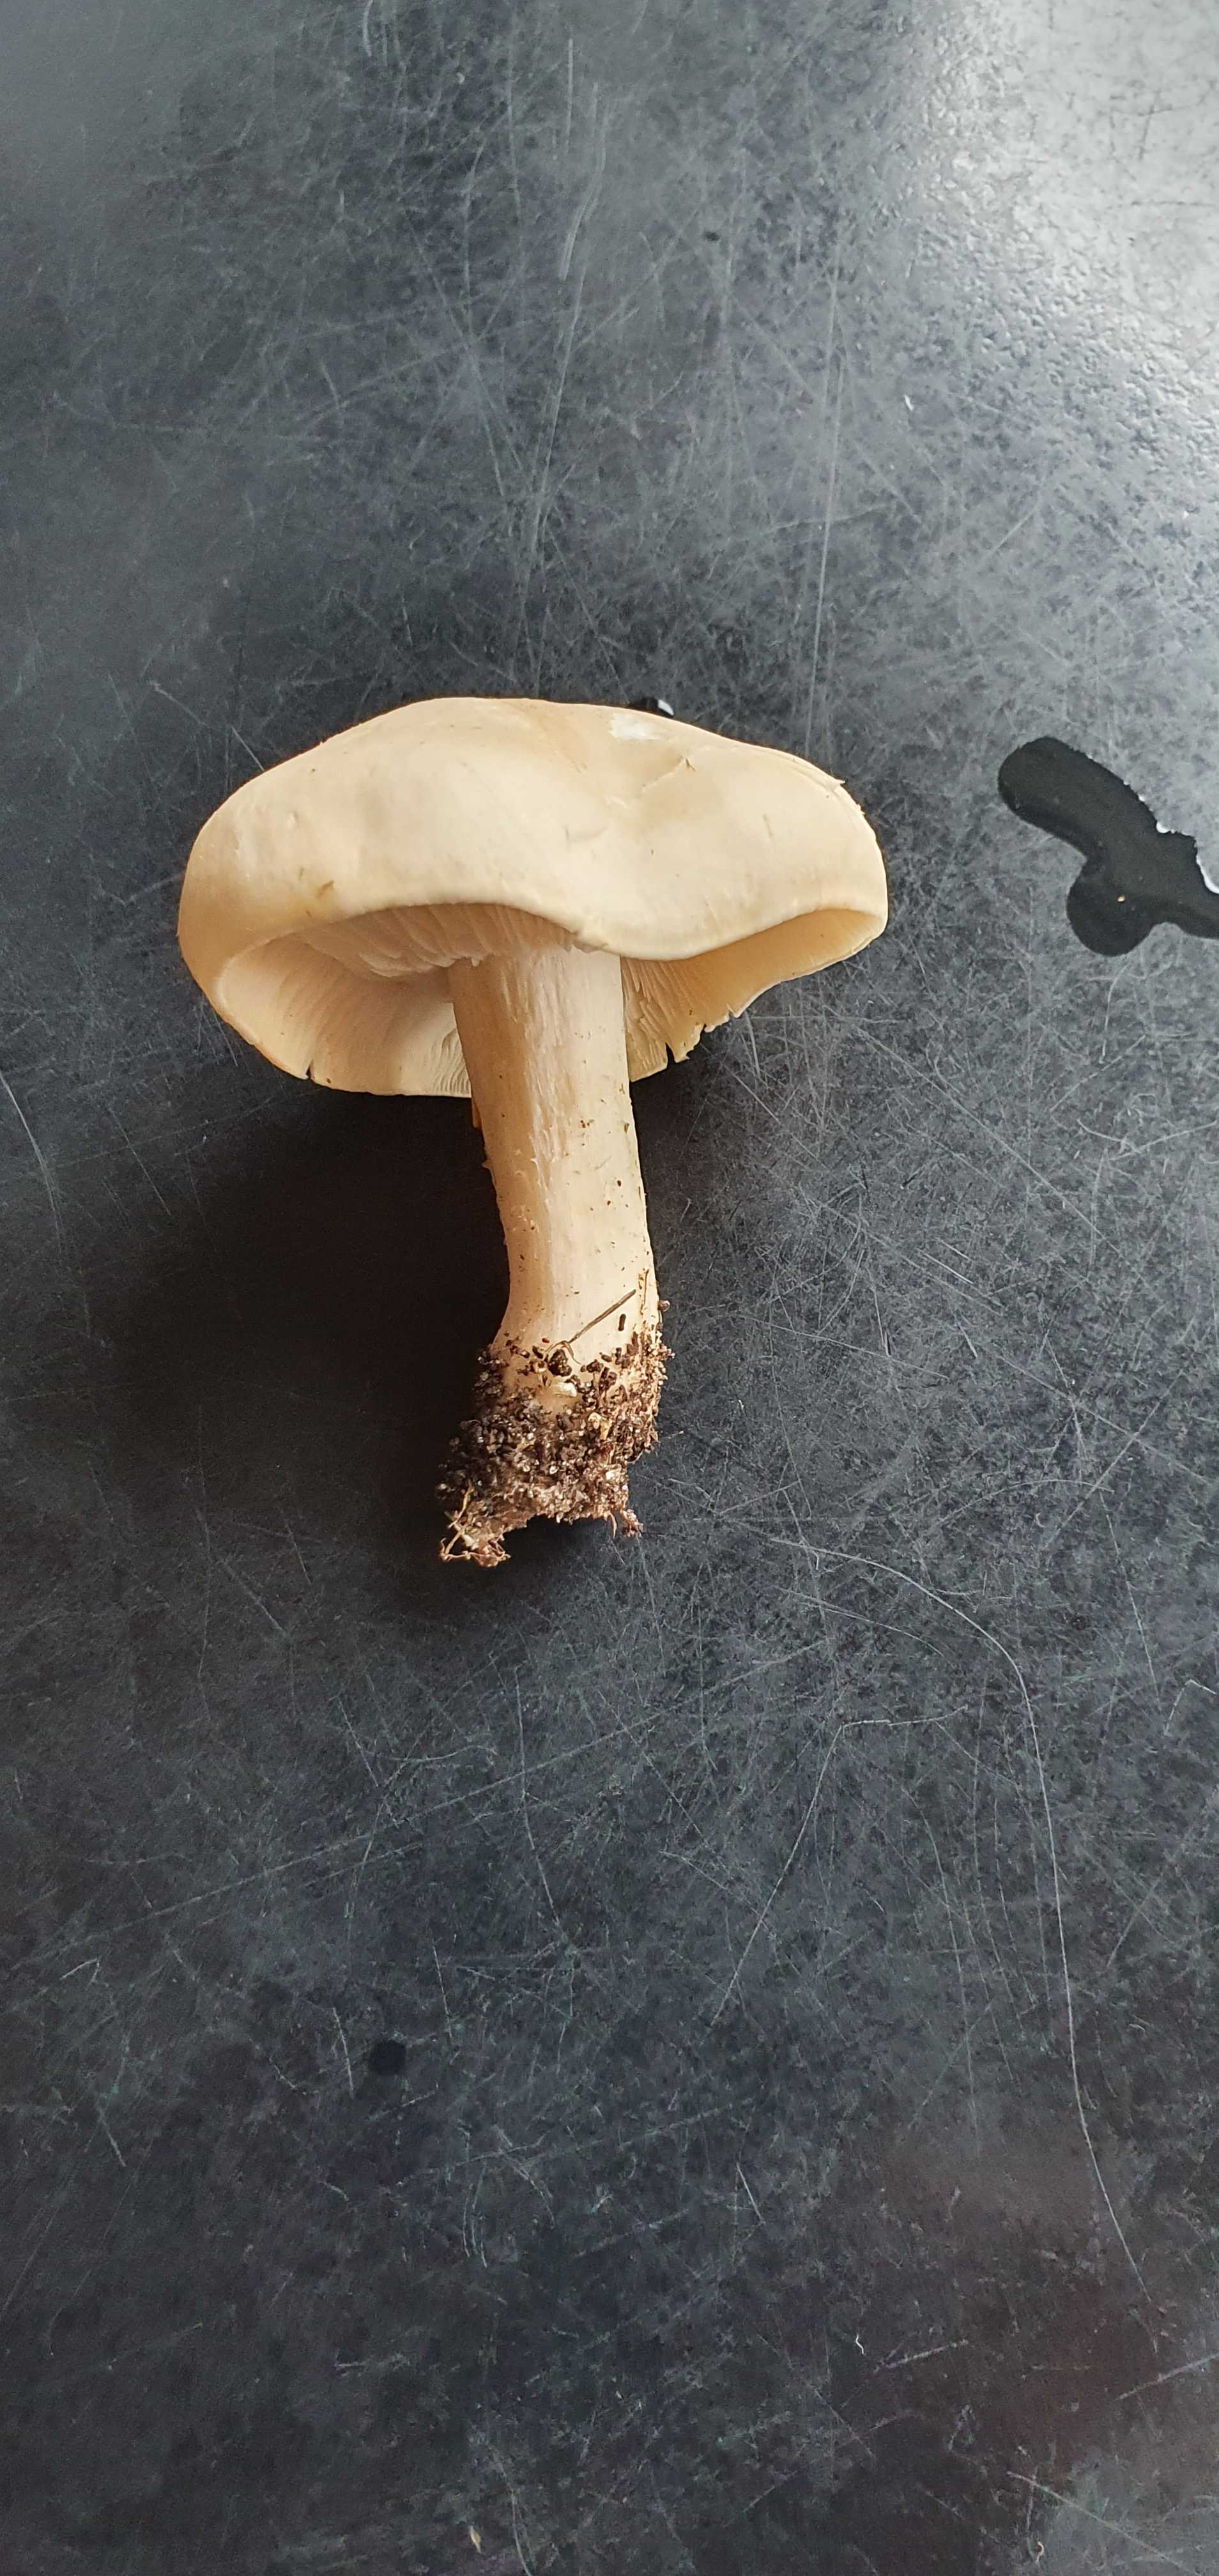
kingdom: Fungi
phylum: Basidiomycota
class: Agaricomycetes
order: Agaricales
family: Lyophyllaceae
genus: Calocybe
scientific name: Calocybe gambosa
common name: vårmusseron
